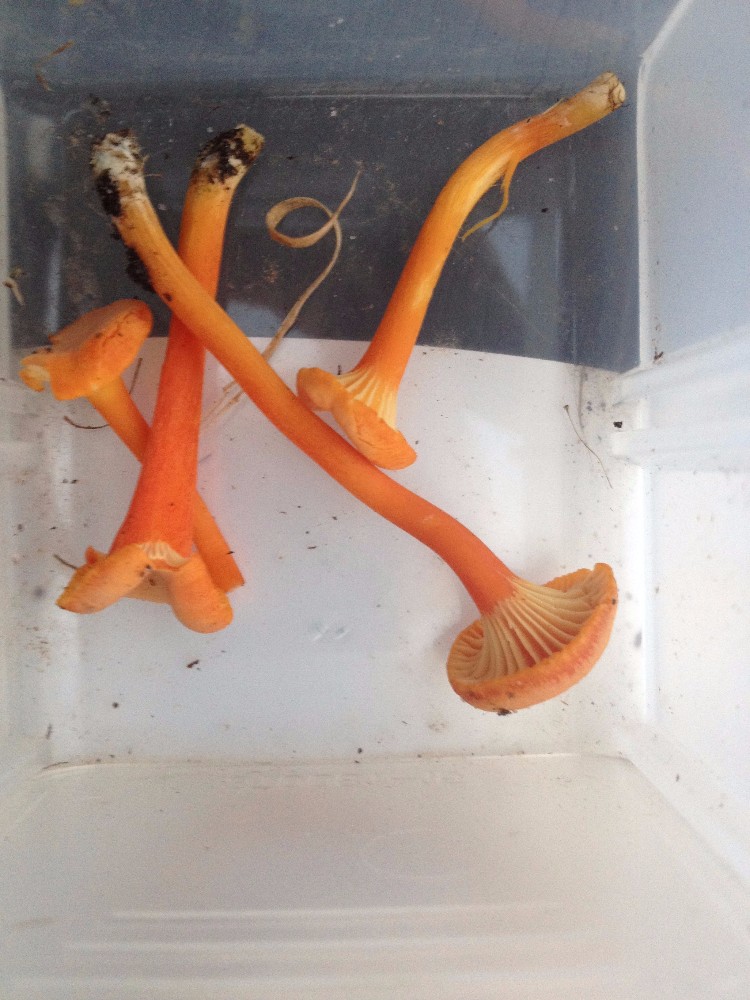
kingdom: Fungi
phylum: Basidiomycota
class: Agaricomycetes
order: Agaricales
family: Hygrophoraceae
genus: Hygrocybe
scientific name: Hygrocybe cantharellus
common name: kantarel-vokshat
